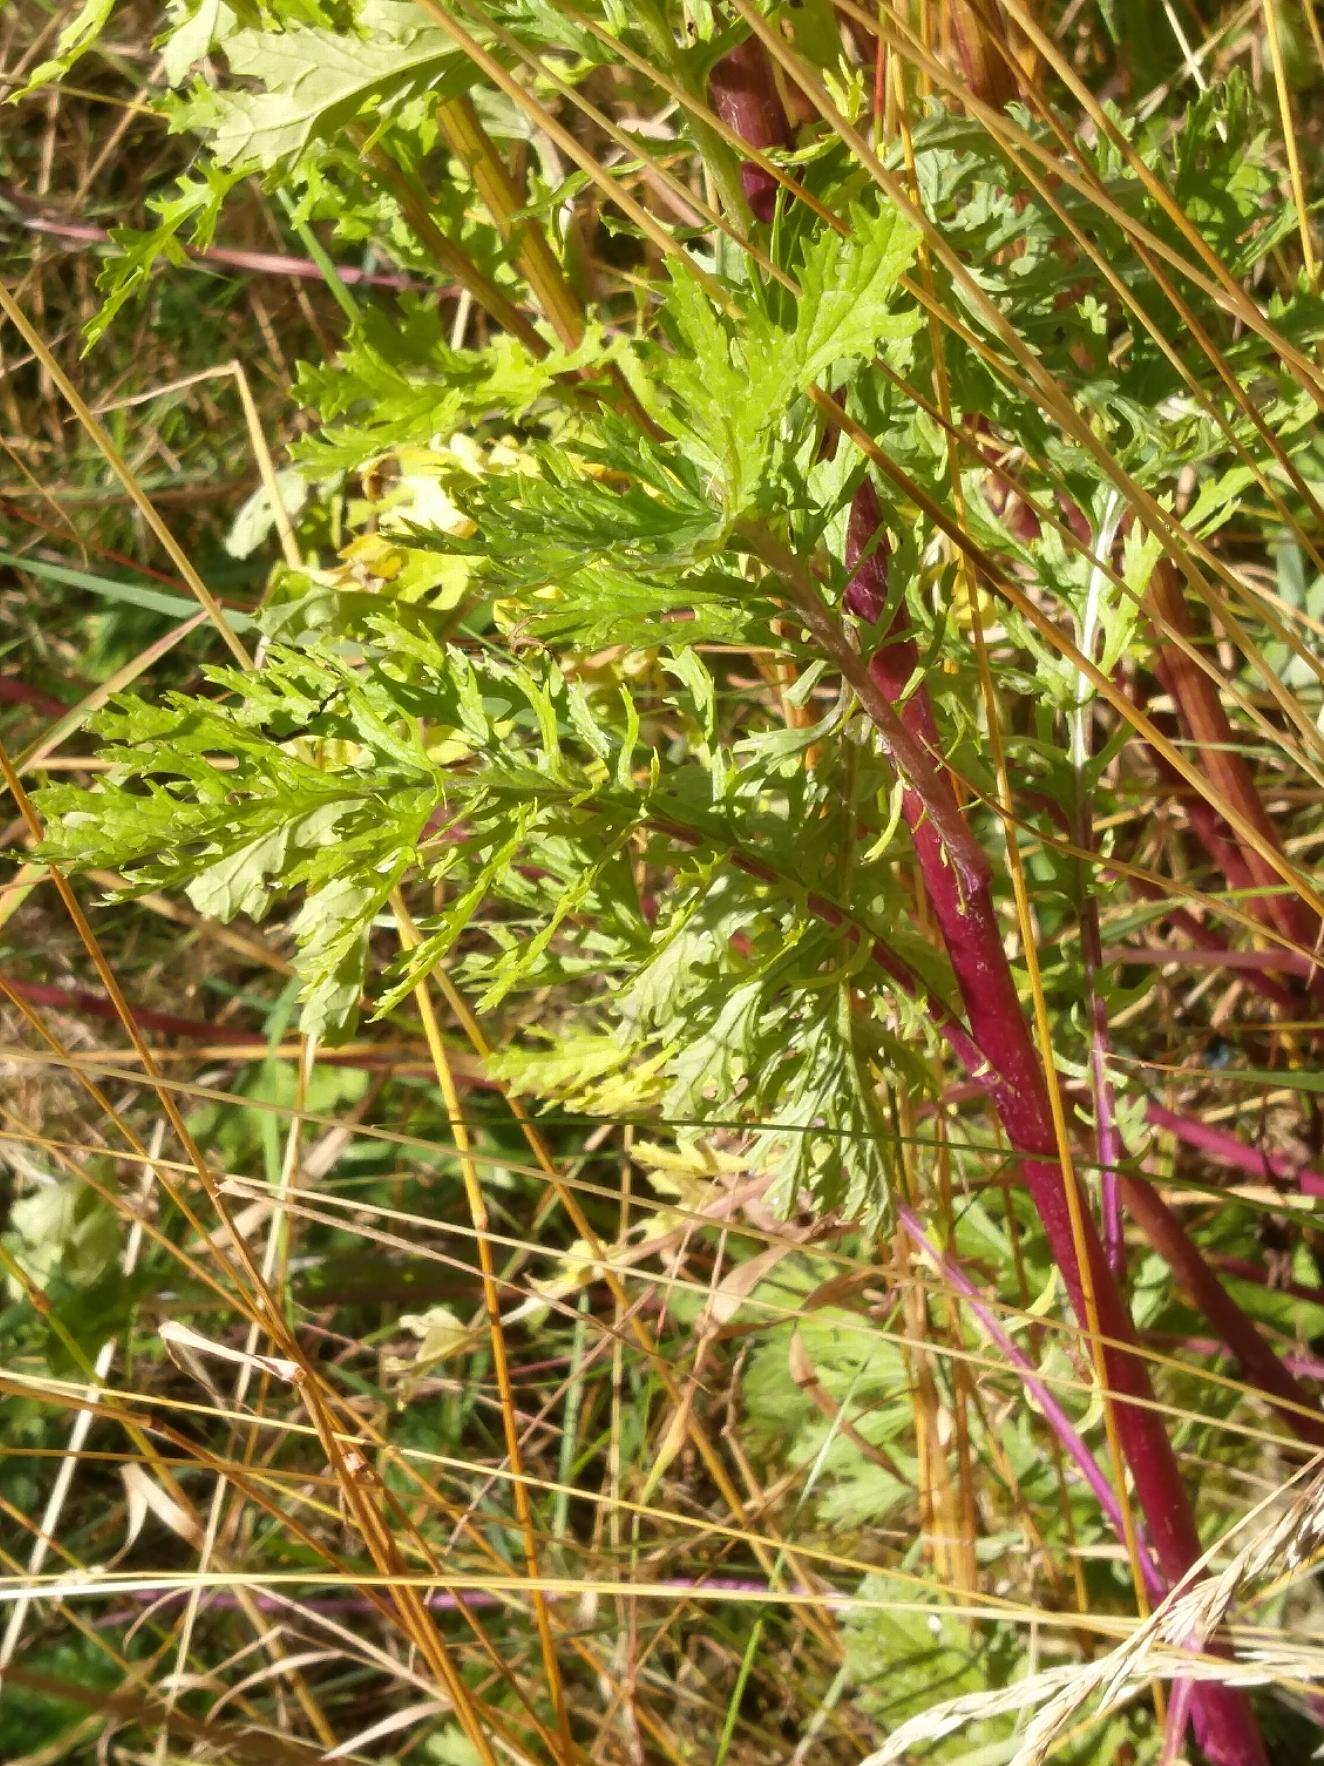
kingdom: Plantae
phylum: Tracheophyta
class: Magnoliopsida
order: Asterales
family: Asteraceae
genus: Jacobaea
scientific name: Jacobaea vulgaris
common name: Eng-brandbæger
